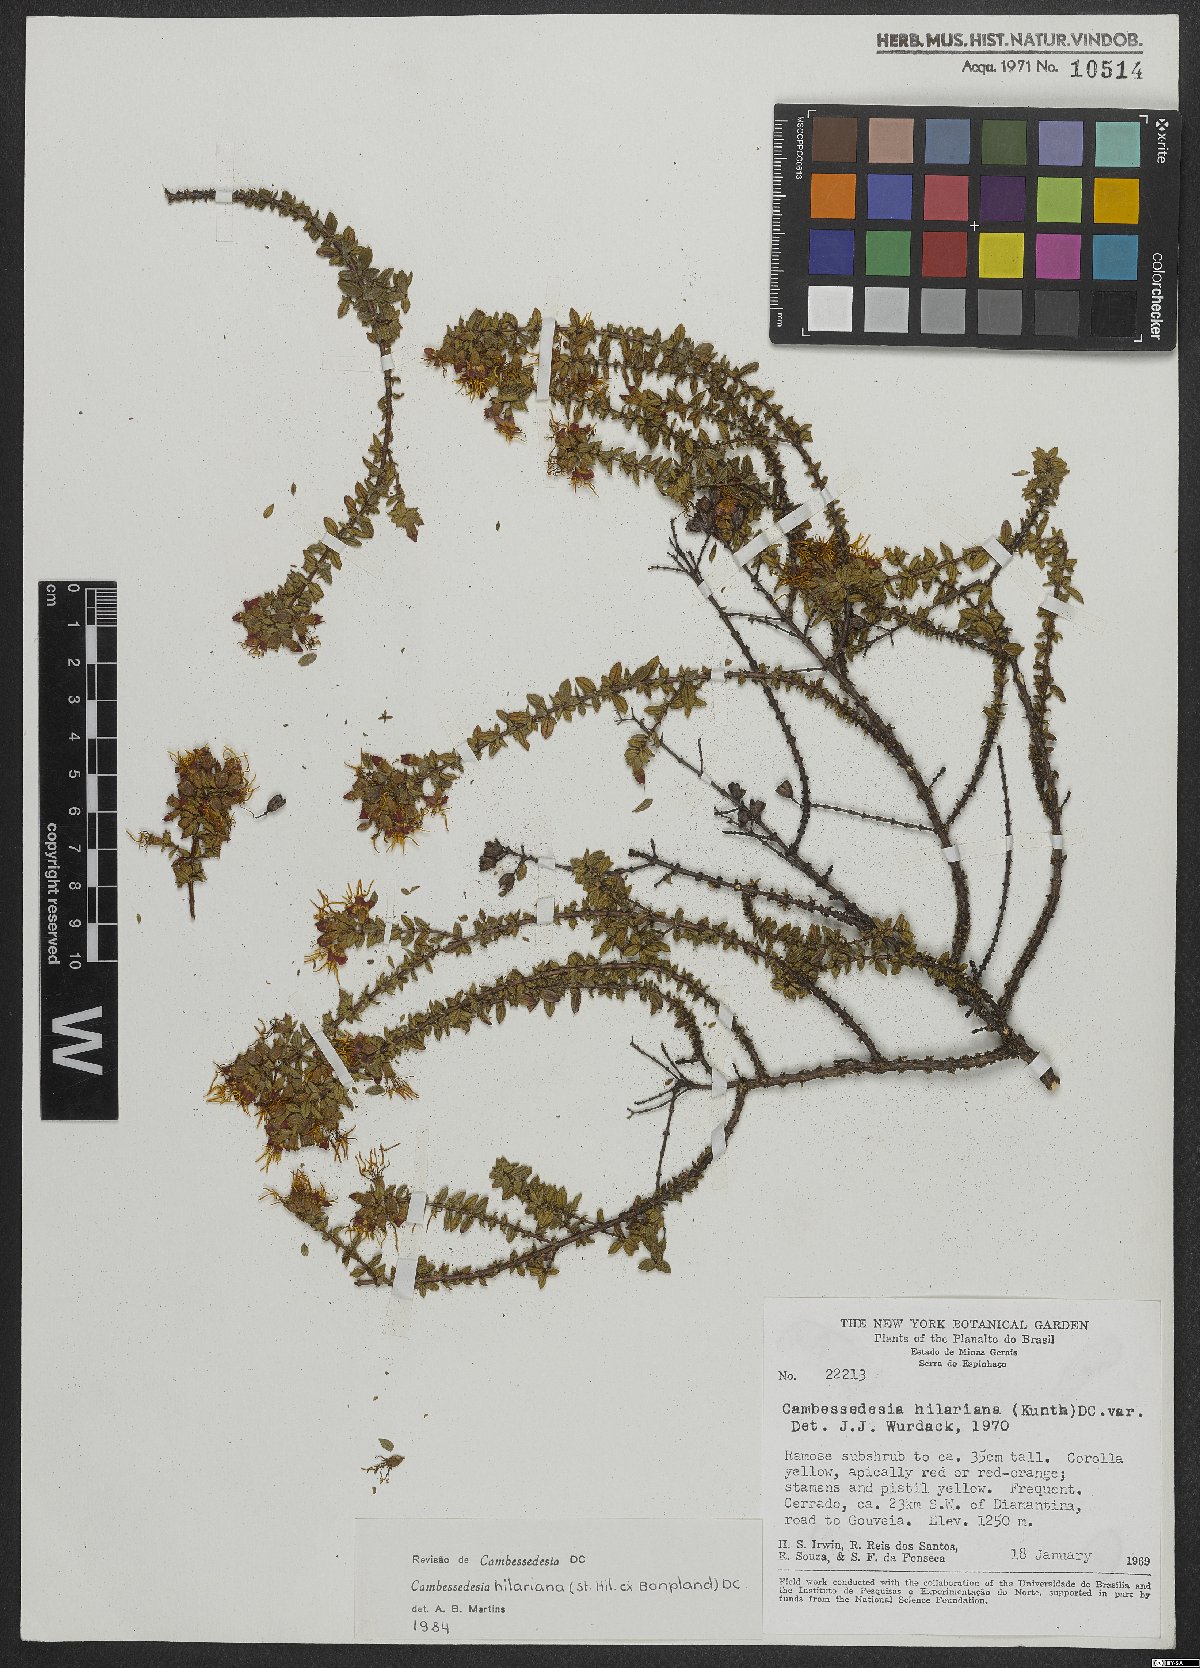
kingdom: Plantae
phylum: Tracheophyta
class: Magnoliopsida
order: Myrtales
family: Melastomataceae
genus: Cambessedesia
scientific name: Cambessedesia hilariana
